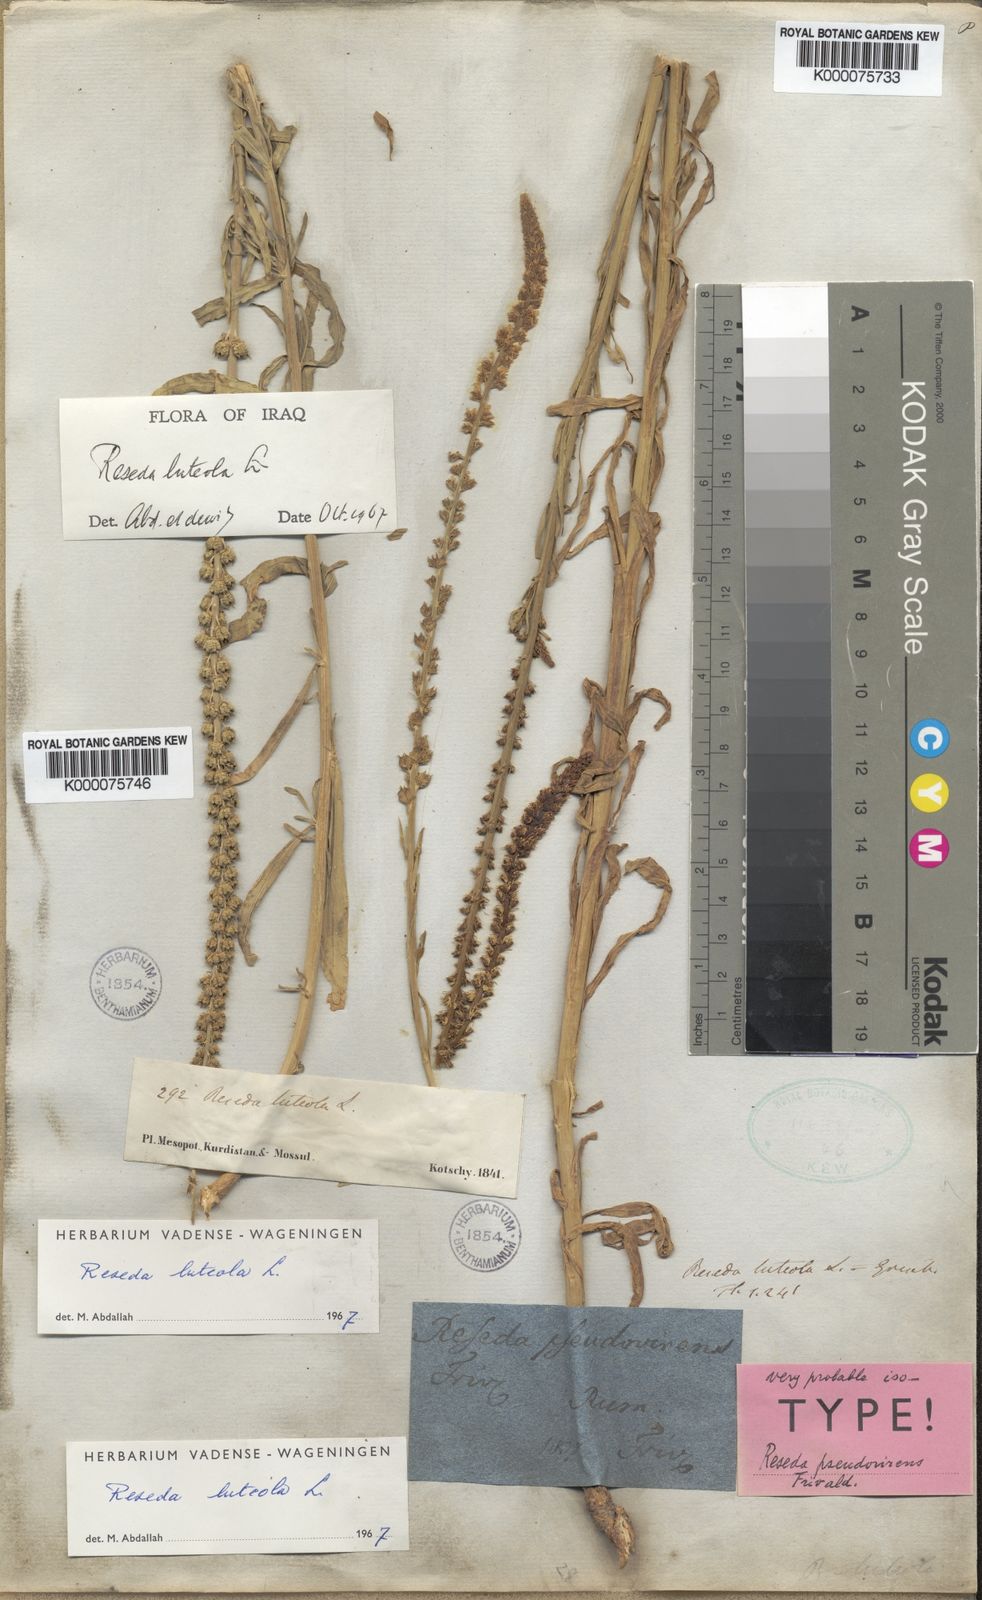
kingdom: Plantae
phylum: Tracheophyta
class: Magnoliopsida
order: Brassicales
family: Resedaceae
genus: Reseda
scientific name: Reseda luteola
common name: Weld
